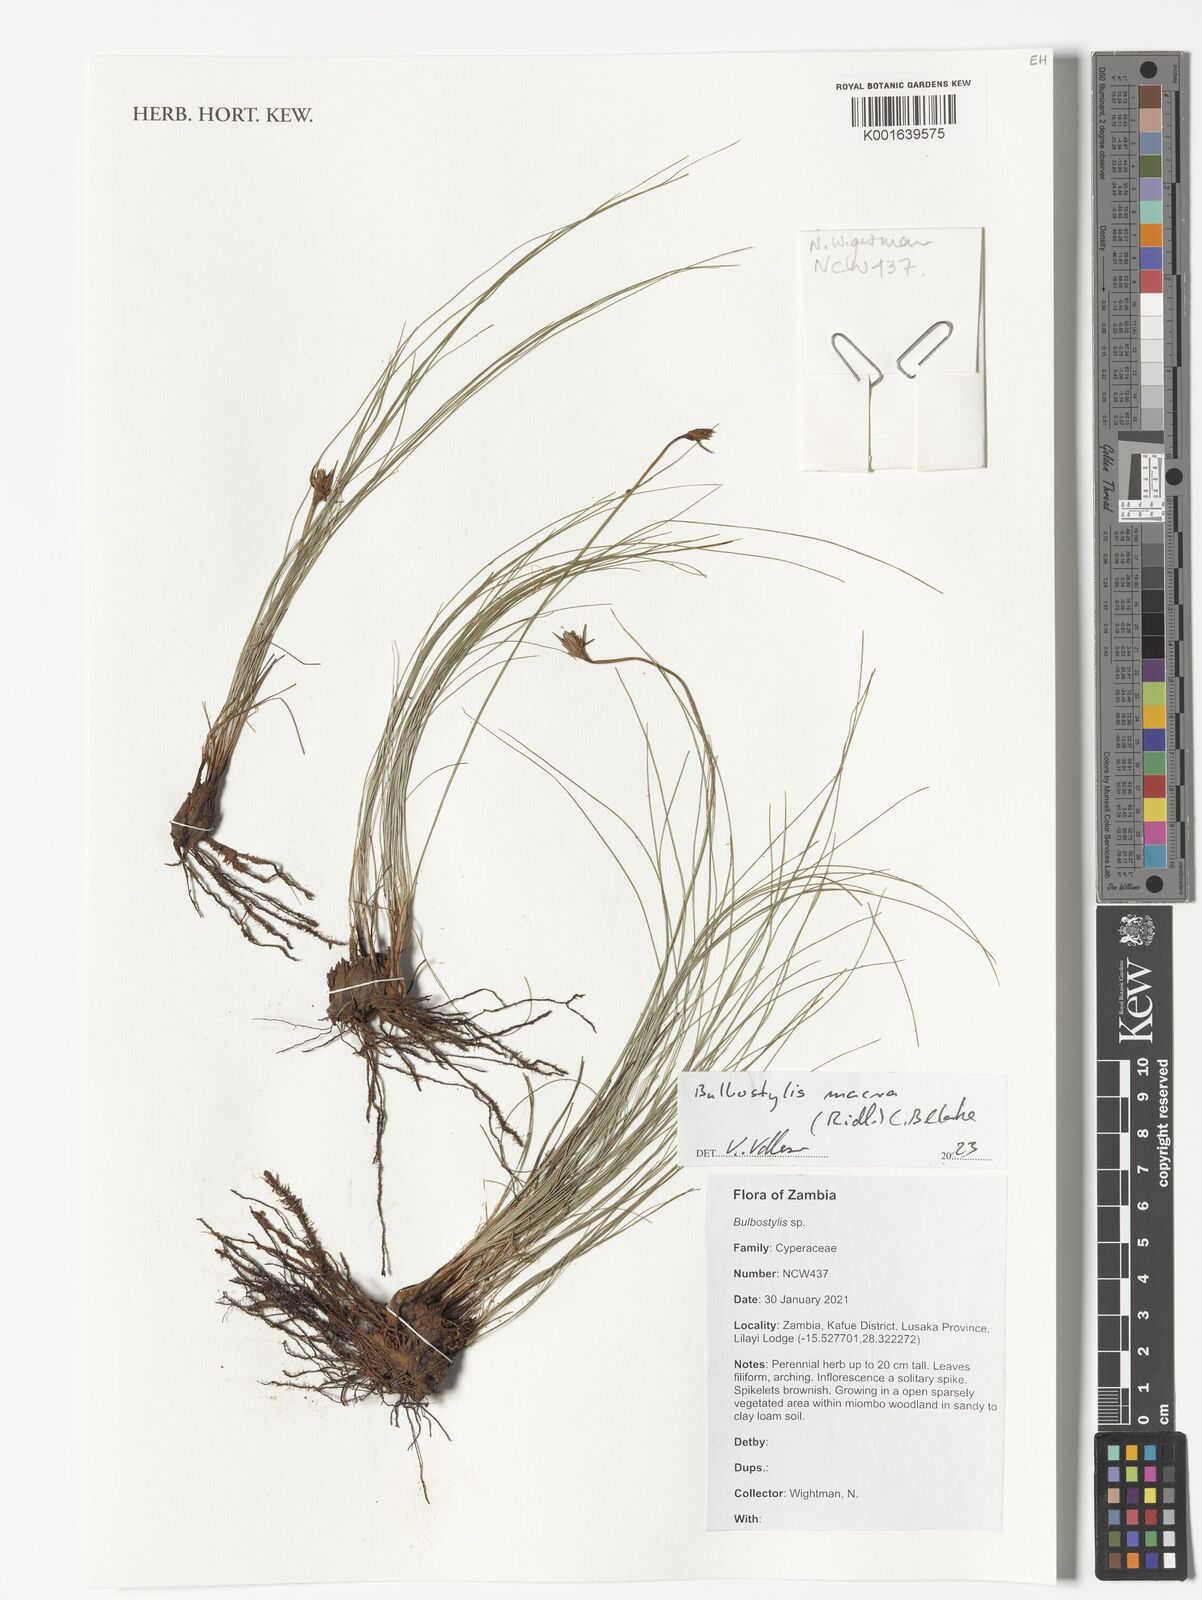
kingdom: Plantae
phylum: Tracheophyta
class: Liliopsida
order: Poales
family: Cyperaceae
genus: Bulbostylis
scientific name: Bulbostylis macra
